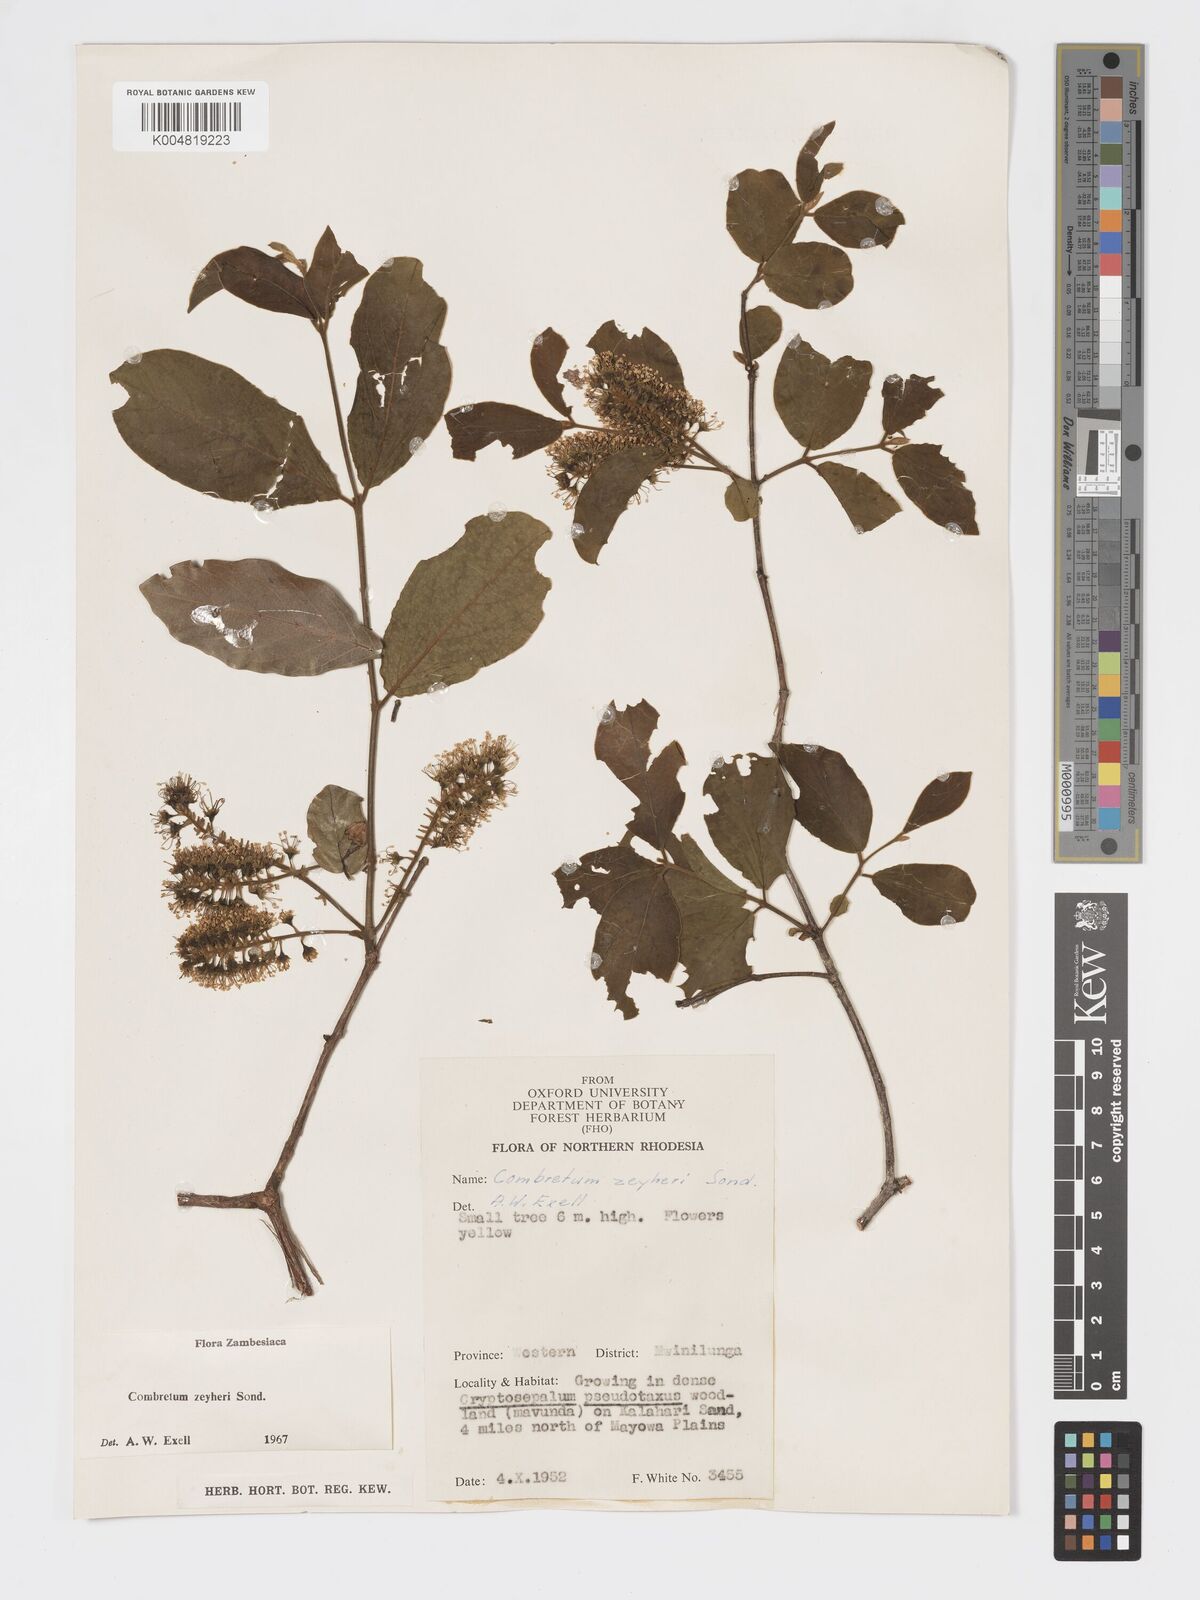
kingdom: Plantae
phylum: Tracheophyta
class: Magnoliopsida
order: Myrtales
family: Combretaceae
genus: Combretum
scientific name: Combretum zeyheri
